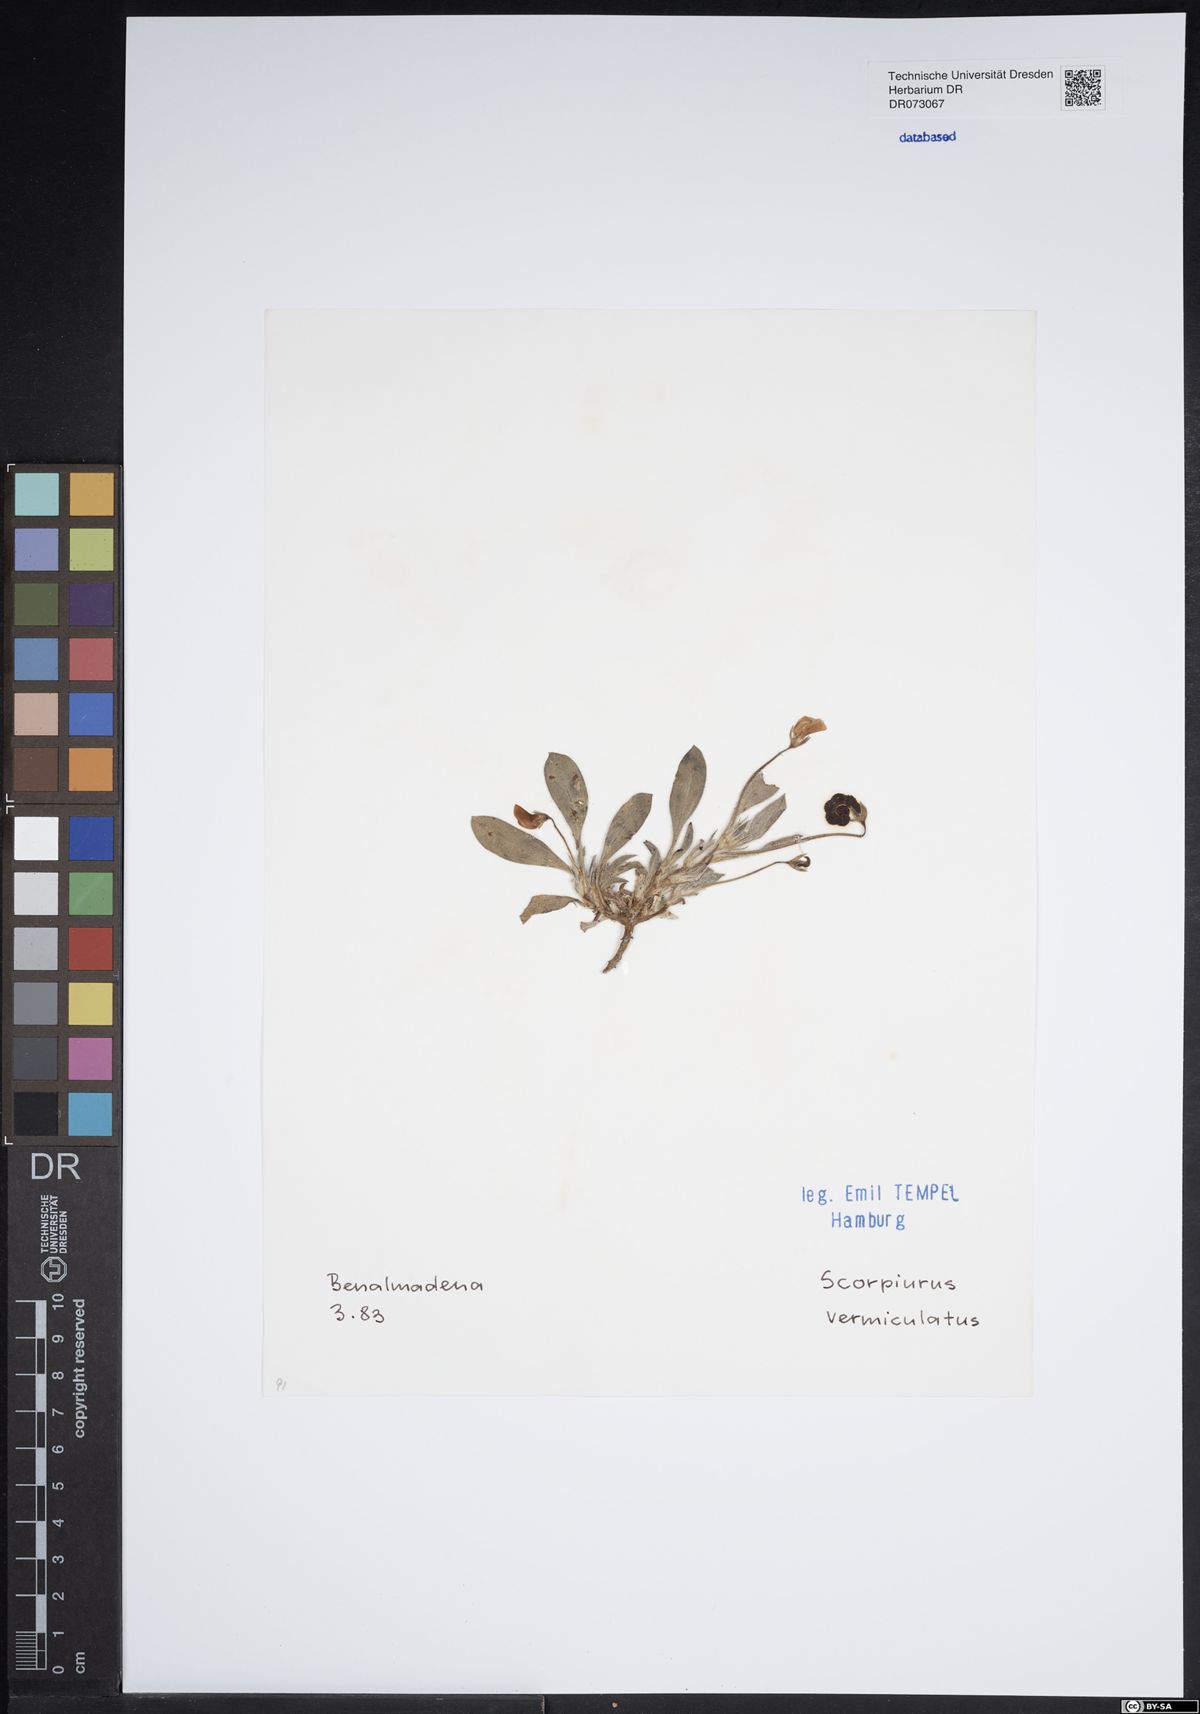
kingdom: Plantae
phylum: Tracheophyta
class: Magnoliopsida
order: Fabales
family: Fabaceae
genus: Scorpiurus
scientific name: Scorpiurus vermiculatus
